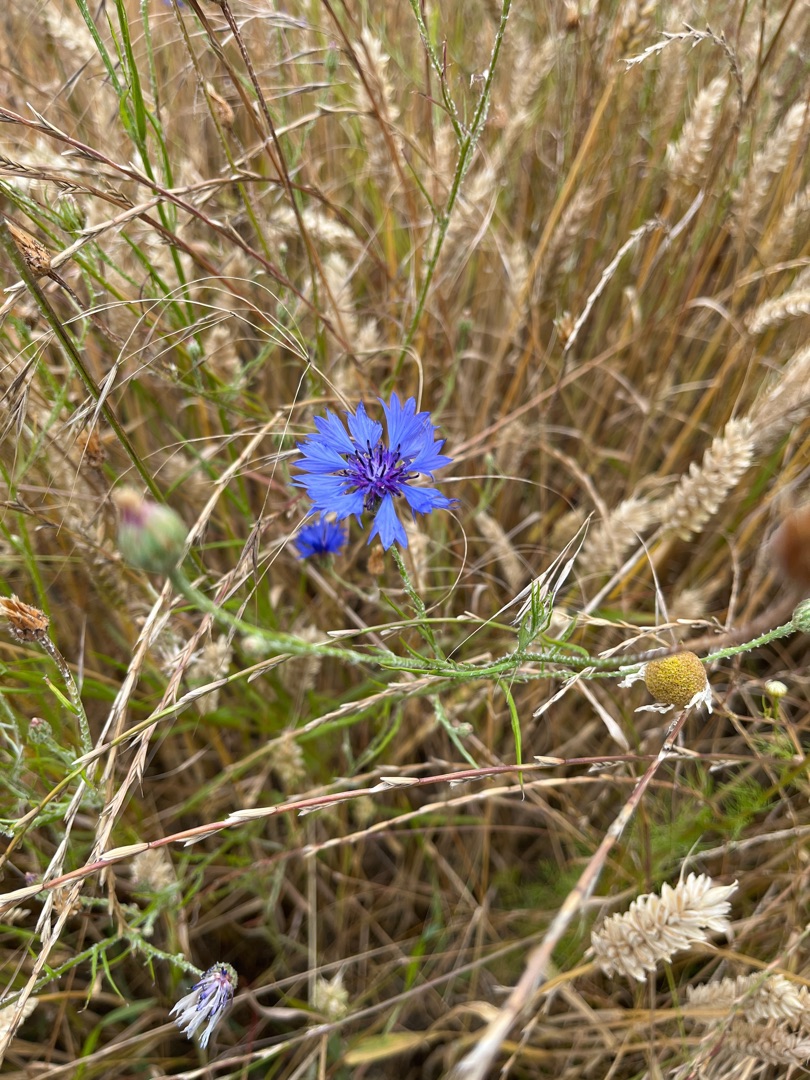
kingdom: Plantae
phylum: Tracheophyta
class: Magnoliopsida
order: Asterales
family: Asteraceae
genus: Centaurea
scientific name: Centaurea cyanus
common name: Kornblomst
